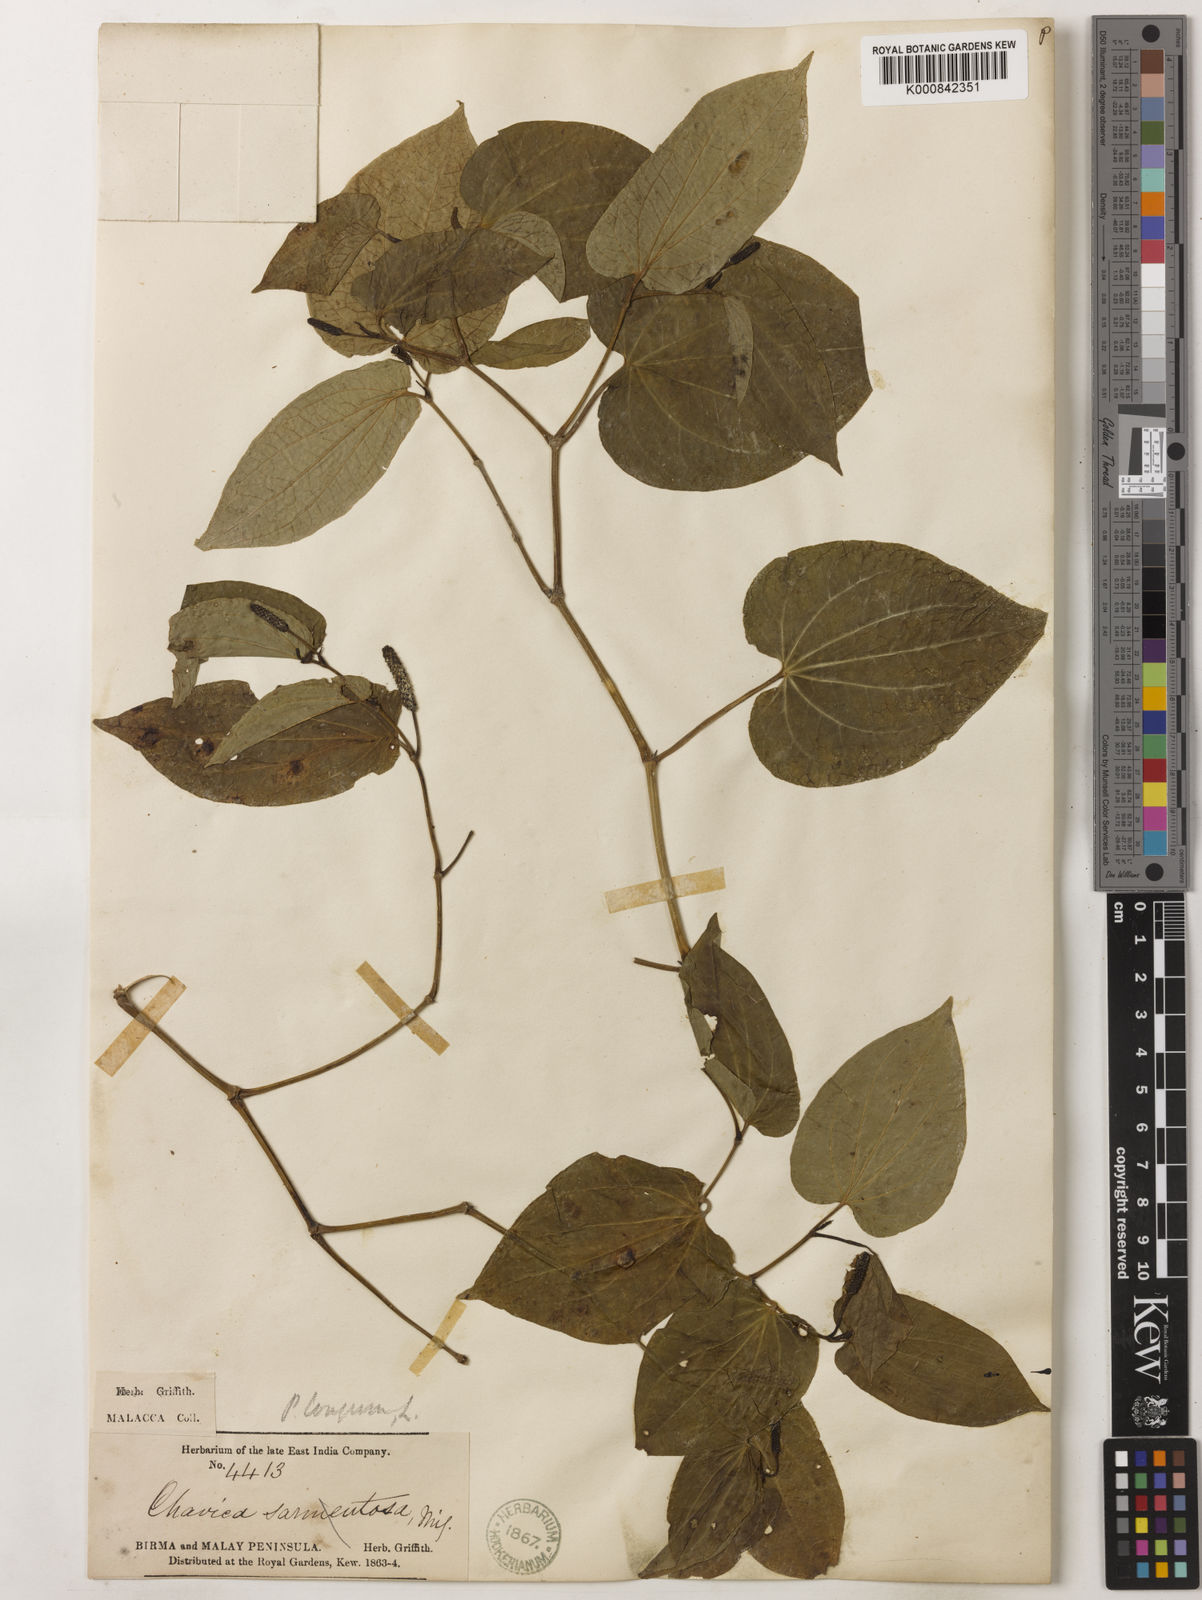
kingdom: Plantae
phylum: Tracheophyta
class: Magnoliopsida
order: Piperales
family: Piperaceae
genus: Piper
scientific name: Piper sarmentosum
